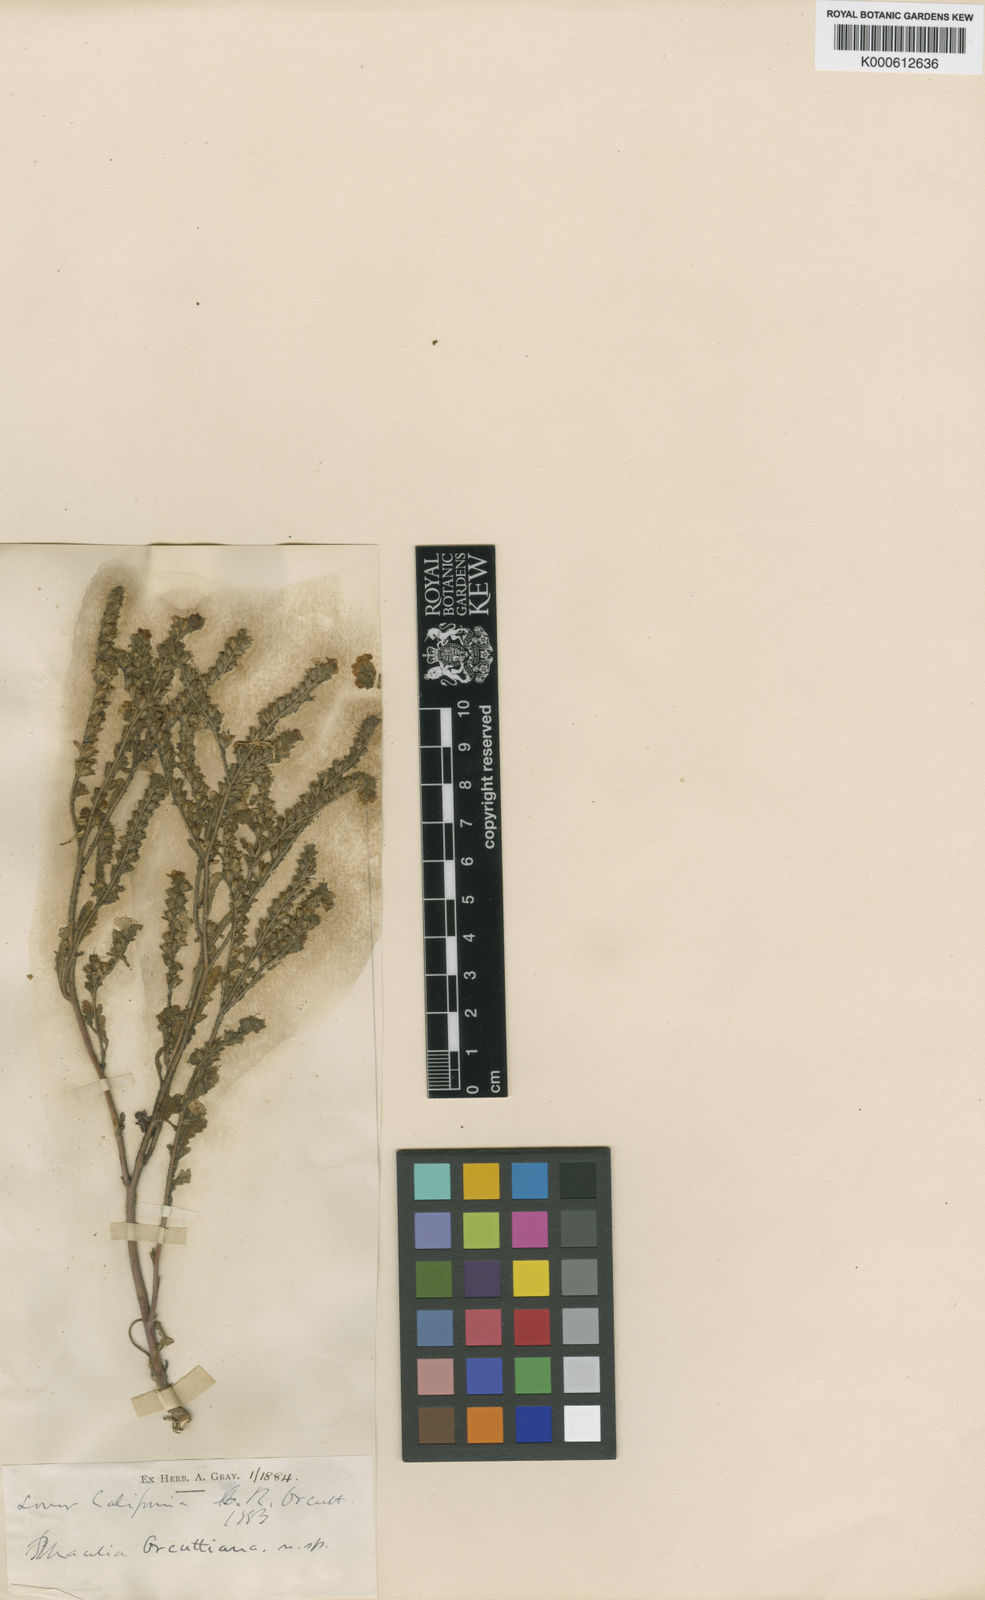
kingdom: Plantae
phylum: Tracheophyta
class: Magnoliopsida
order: Boraginales
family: Hydrophyllaceae
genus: Phacelia
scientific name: Phacelia brachyloba
